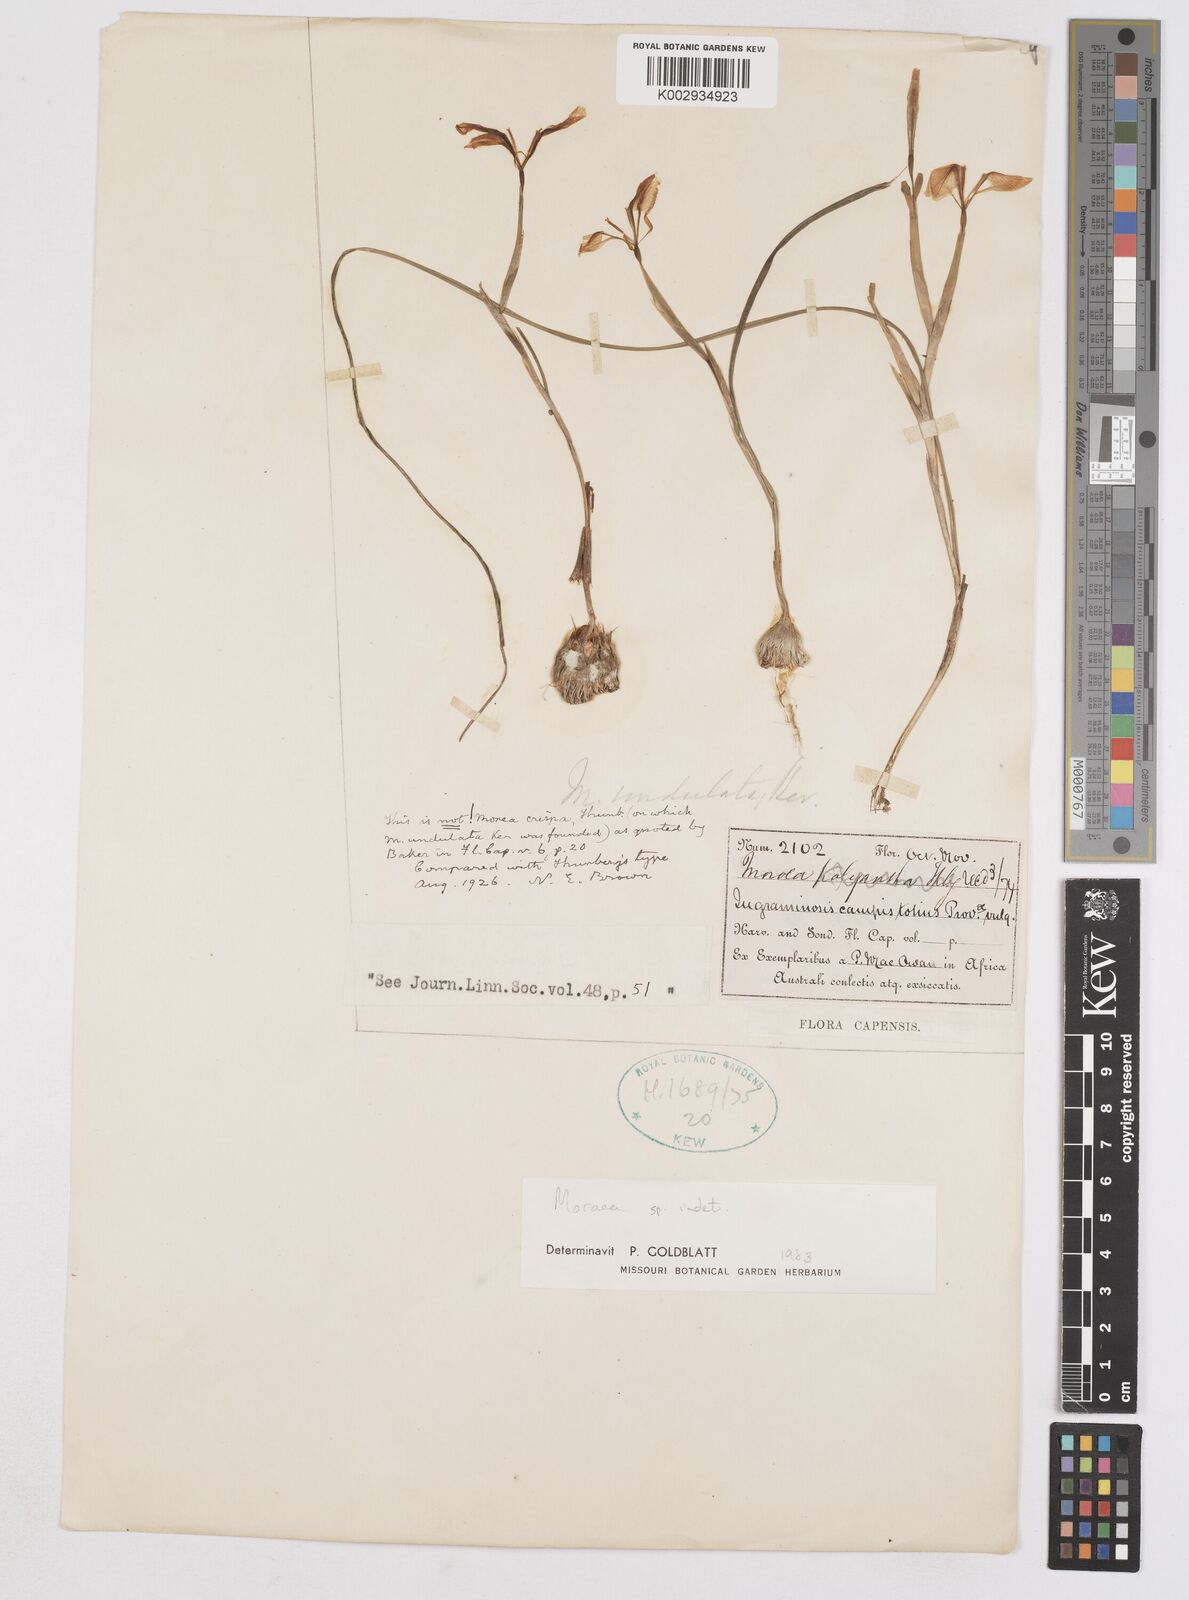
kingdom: Plantae
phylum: Tracheophyta
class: Liliopsida
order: Asparagales
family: Iridaceae
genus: Moraea
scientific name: Moraea
